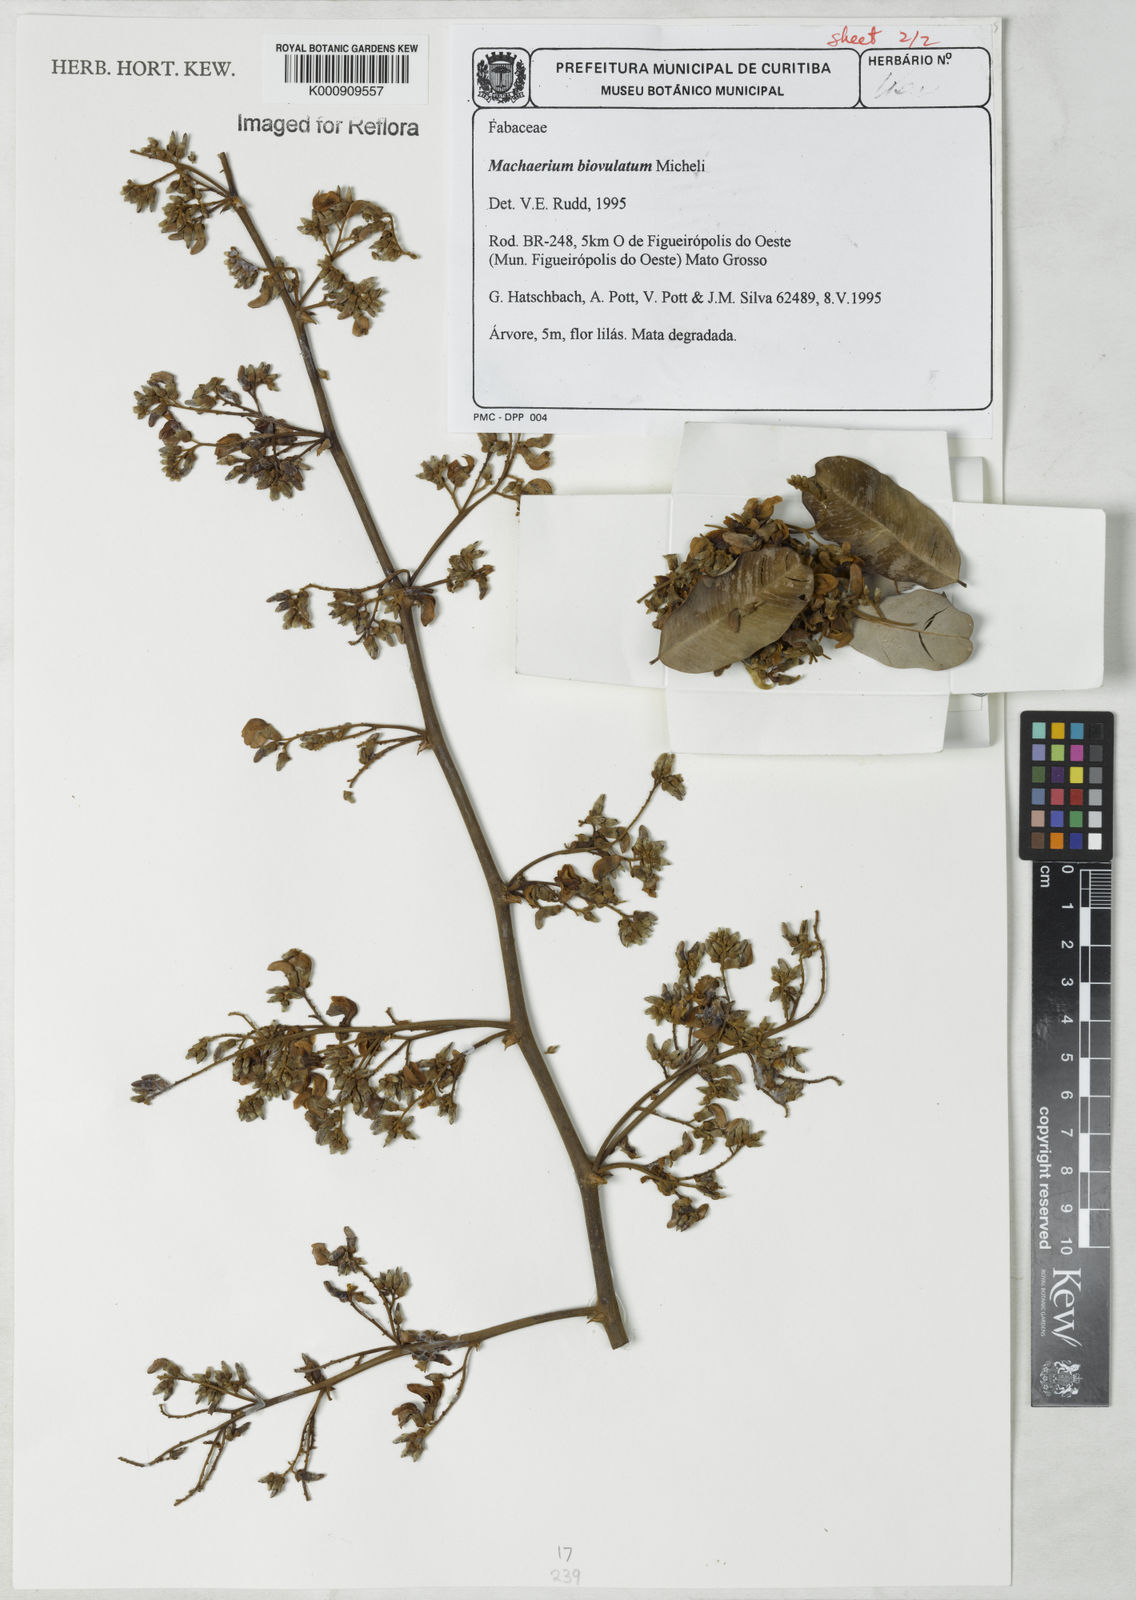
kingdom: Plantae
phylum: Tracheophyta
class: Magnoliopsida
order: Fabales
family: Fabaceae
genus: Machaerium
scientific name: Machaerium biovulatum
